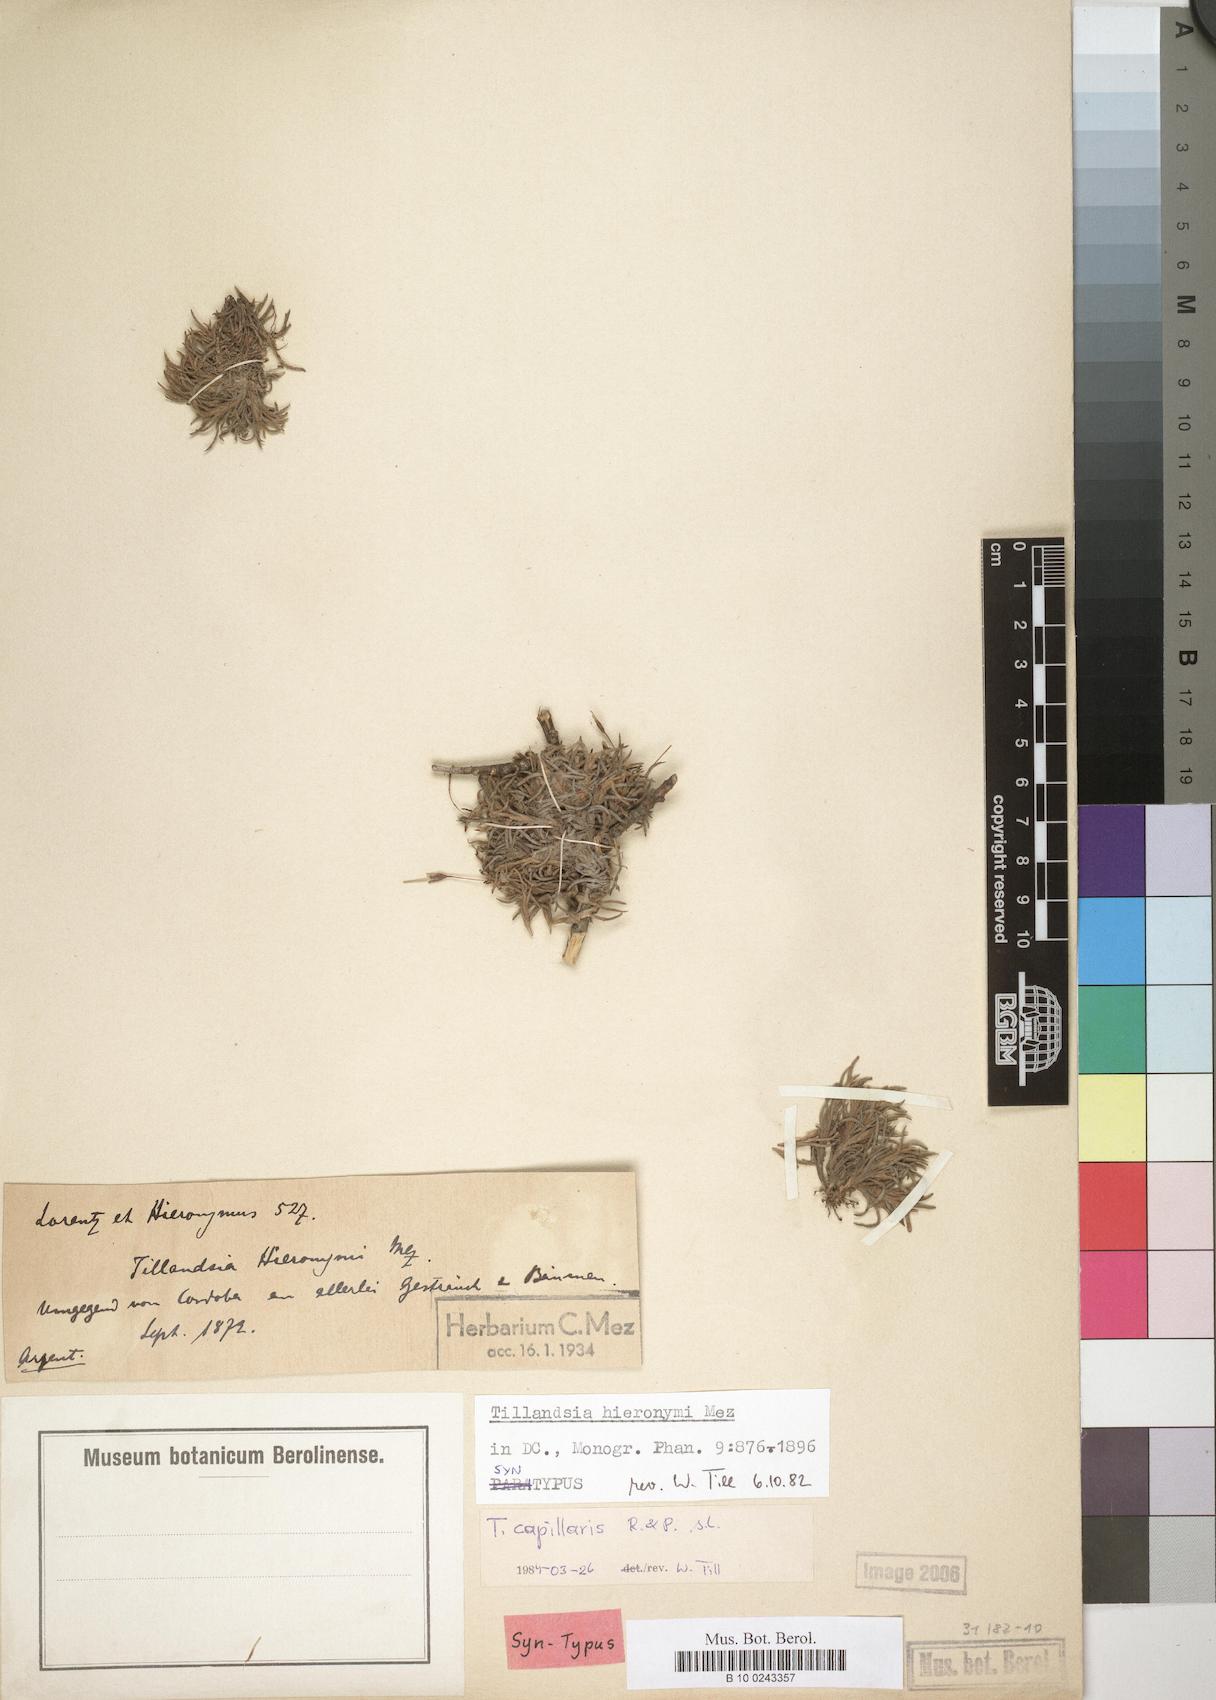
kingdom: Plantae
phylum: Tracheophyta
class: Liliopsida
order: Poales
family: Bromeliaceae
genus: Tillandsia
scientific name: Tillandsia capillaris
